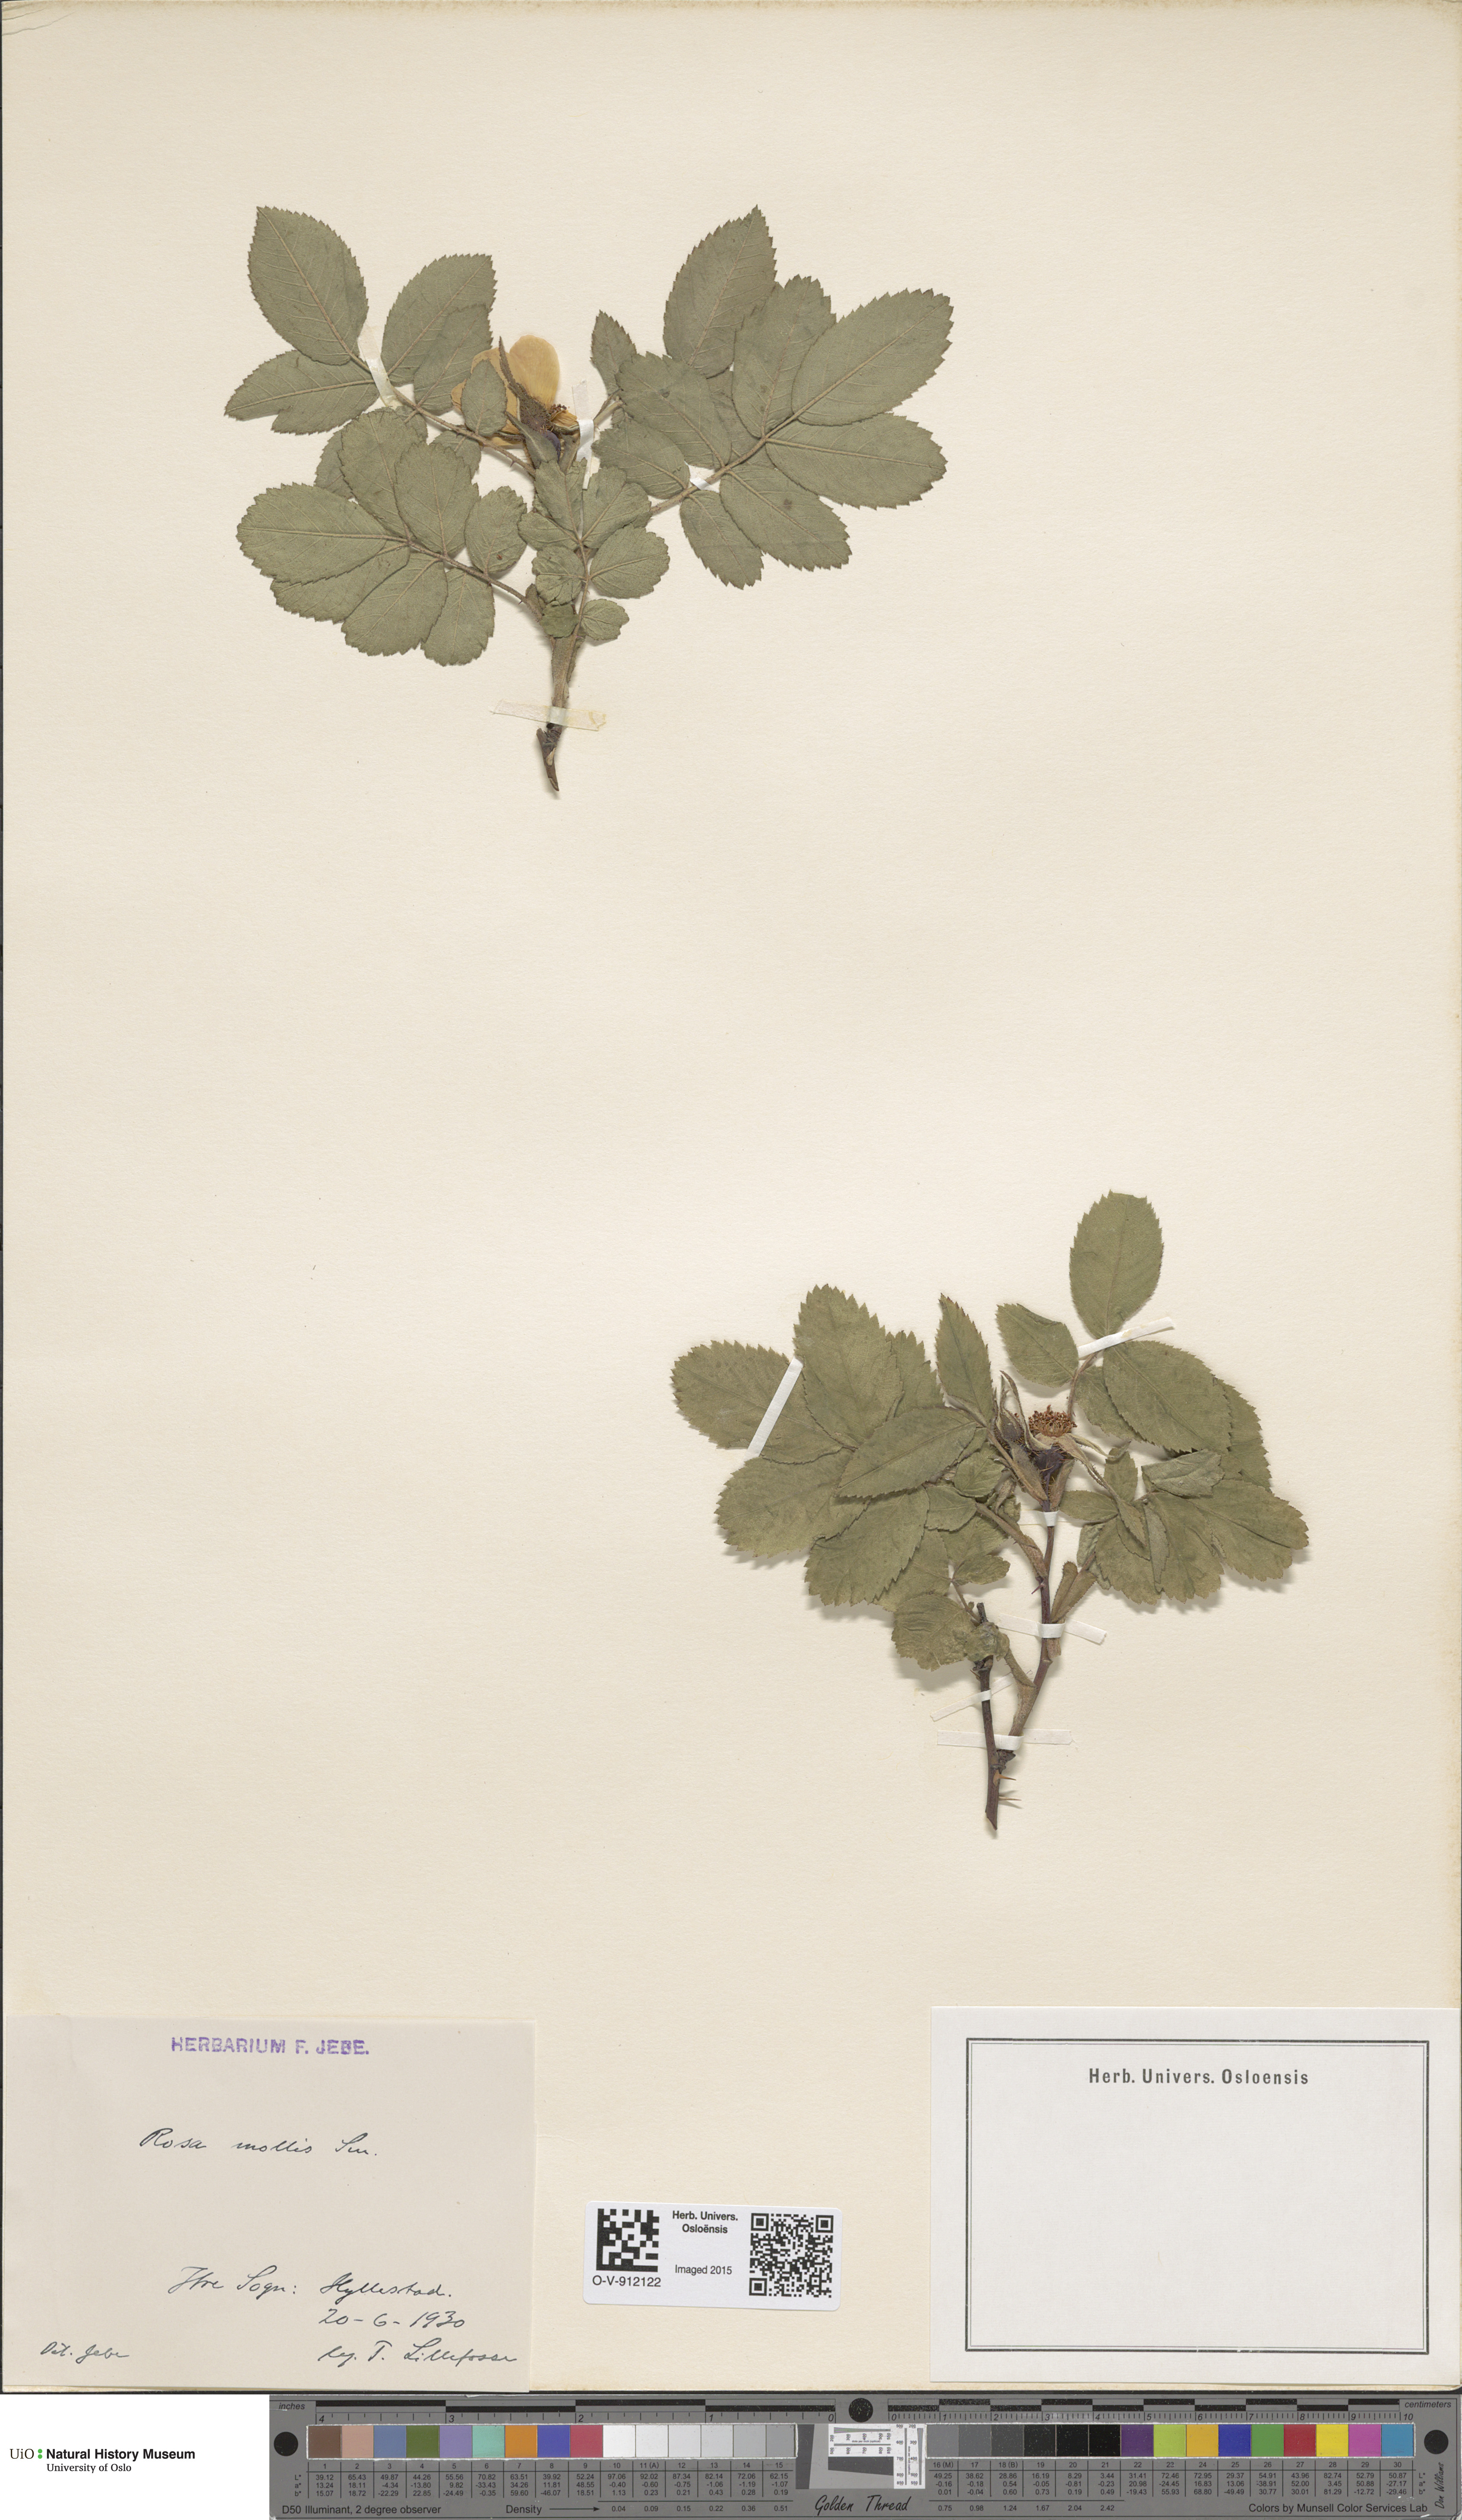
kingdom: Plantae
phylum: Tracheophyta
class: Magnoliopsida
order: Rosales
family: Rosaceae
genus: Rosa
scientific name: Rosa mollis
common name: Rose
